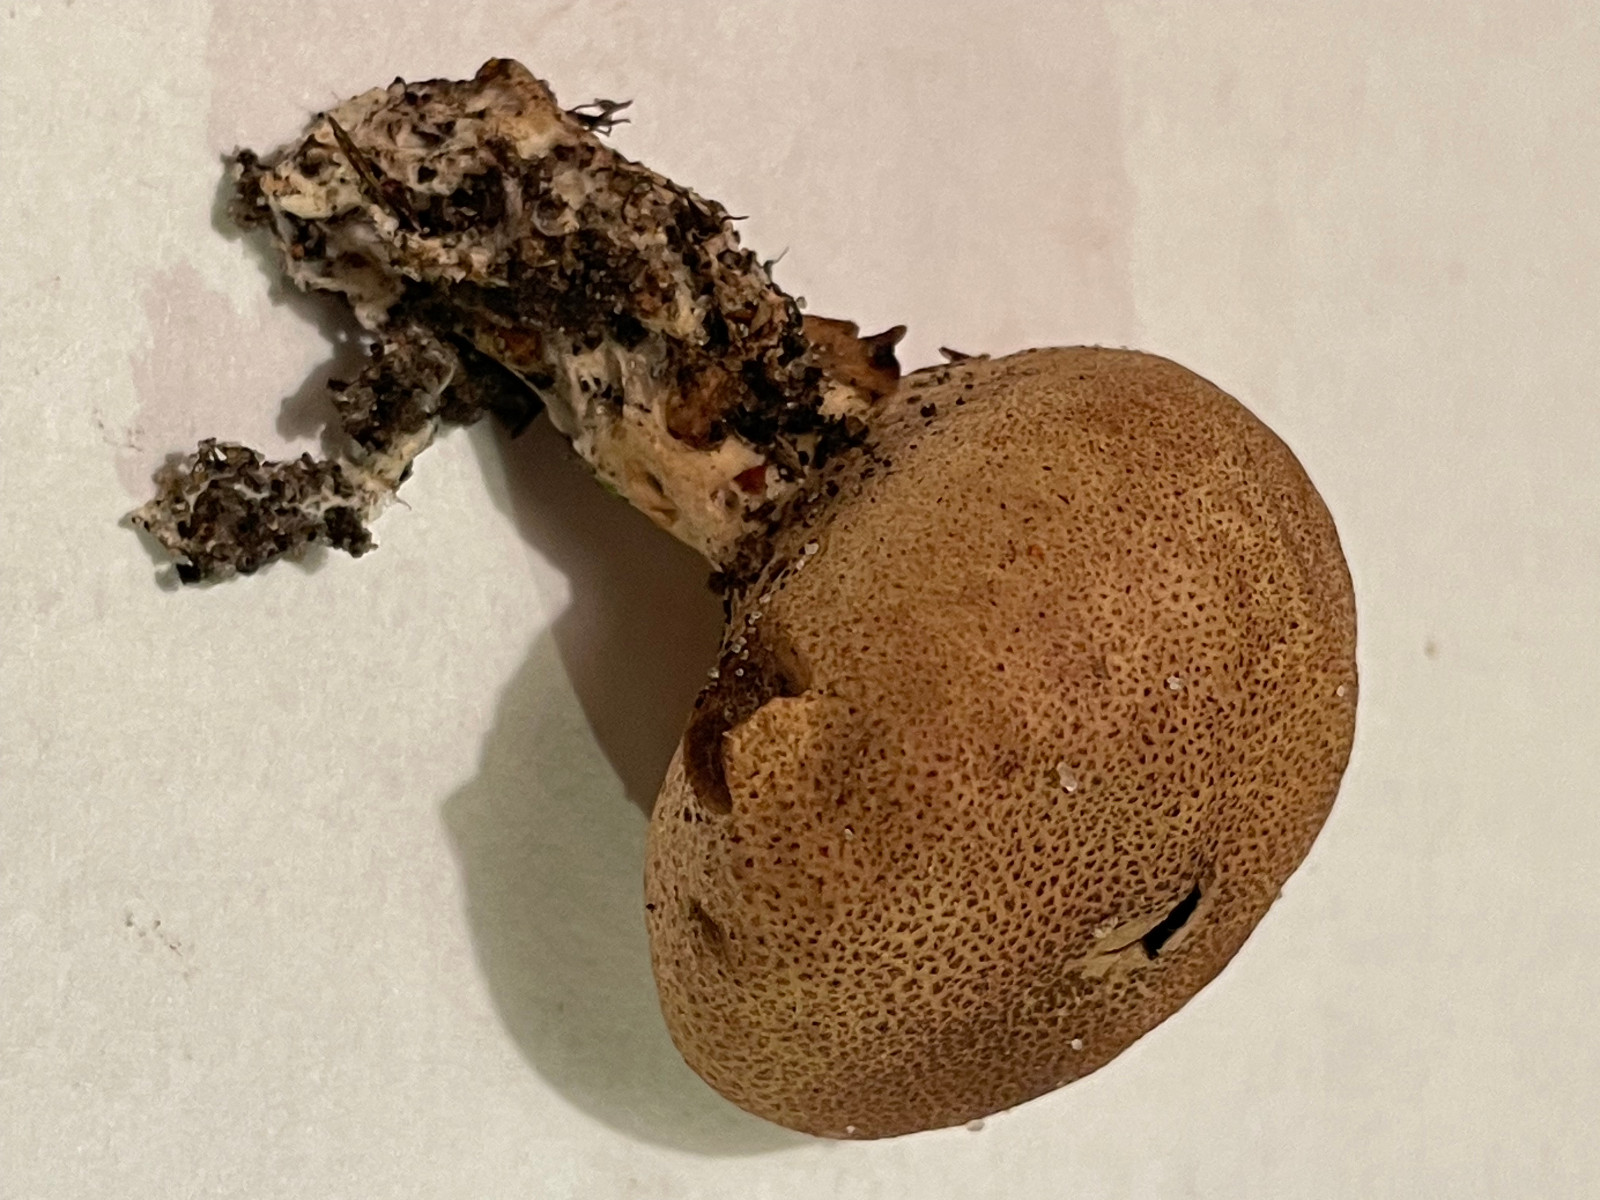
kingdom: Fungi
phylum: Basidiomycota
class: Agaricomycetes
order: Boletales
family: Sclerodermataceae
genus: Scleroderma
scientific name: Scleroderma verrucosum
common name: stilket bruskbold
